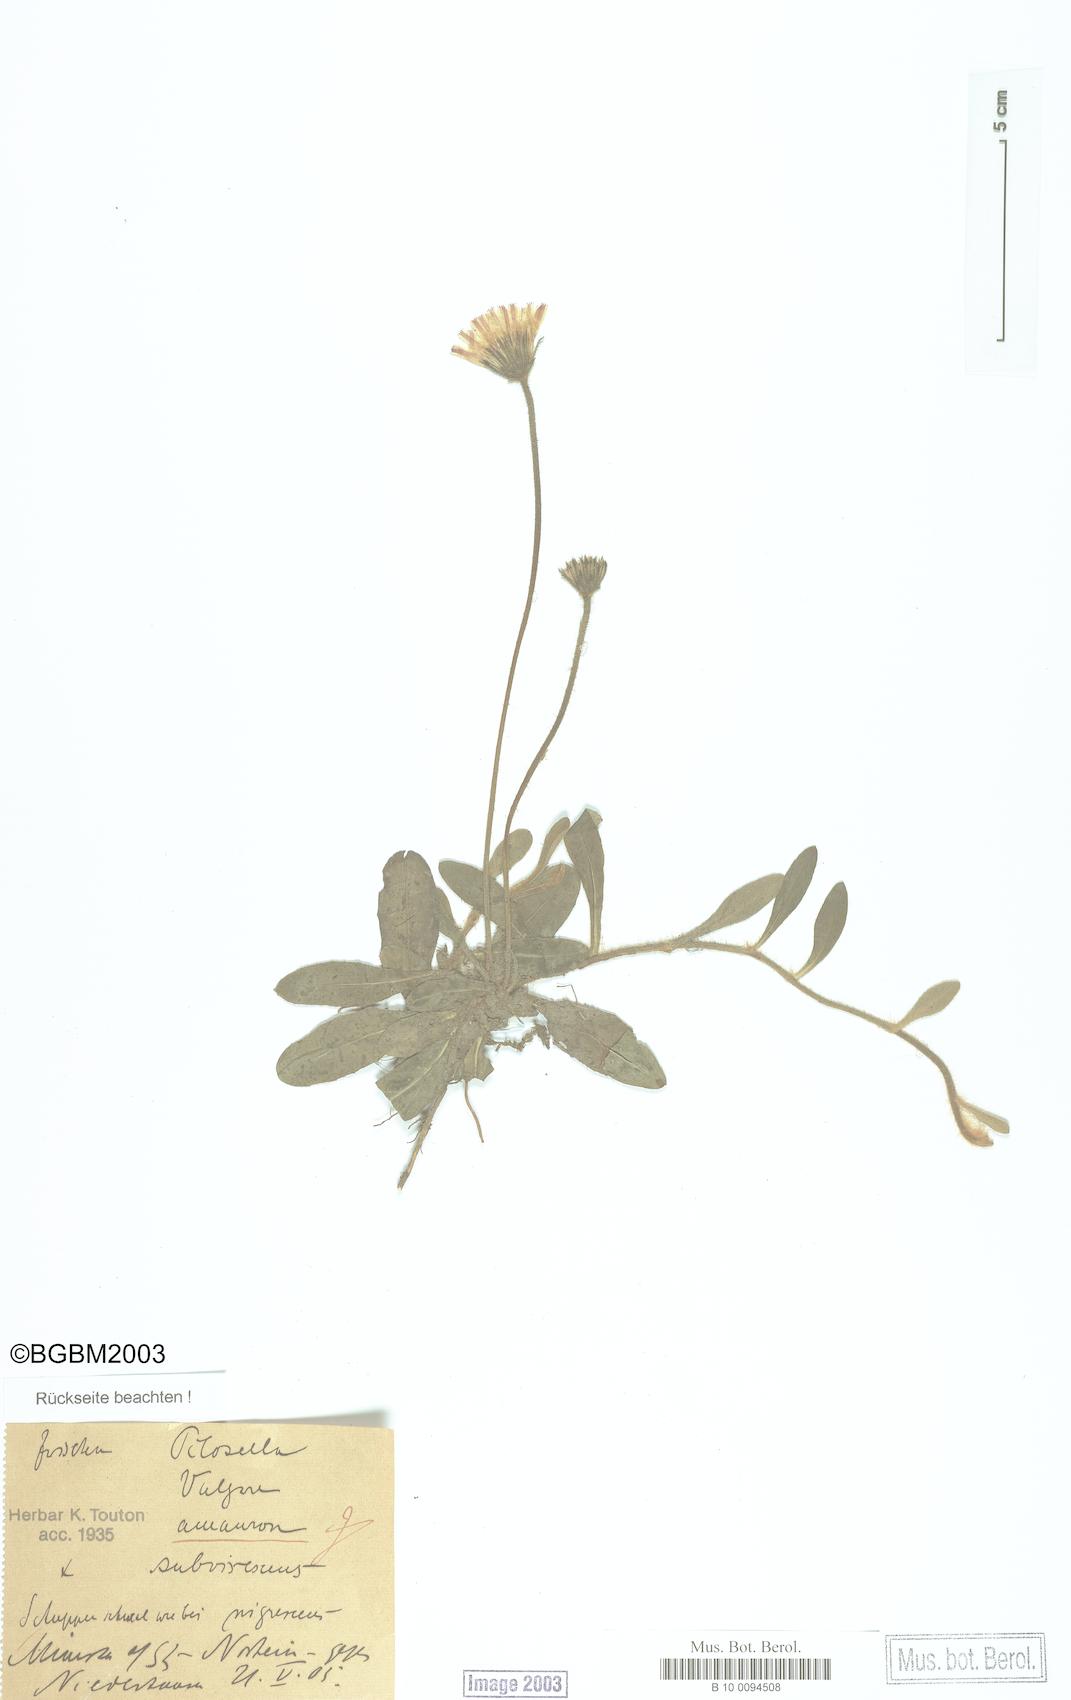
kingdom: Plantae
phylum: Tracheophyta
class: Magnoliopsida
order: Asterales
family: Asteraceae
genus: Pilosella
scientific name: Pilosella officinarum
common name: Mouse-ear hawkweed
